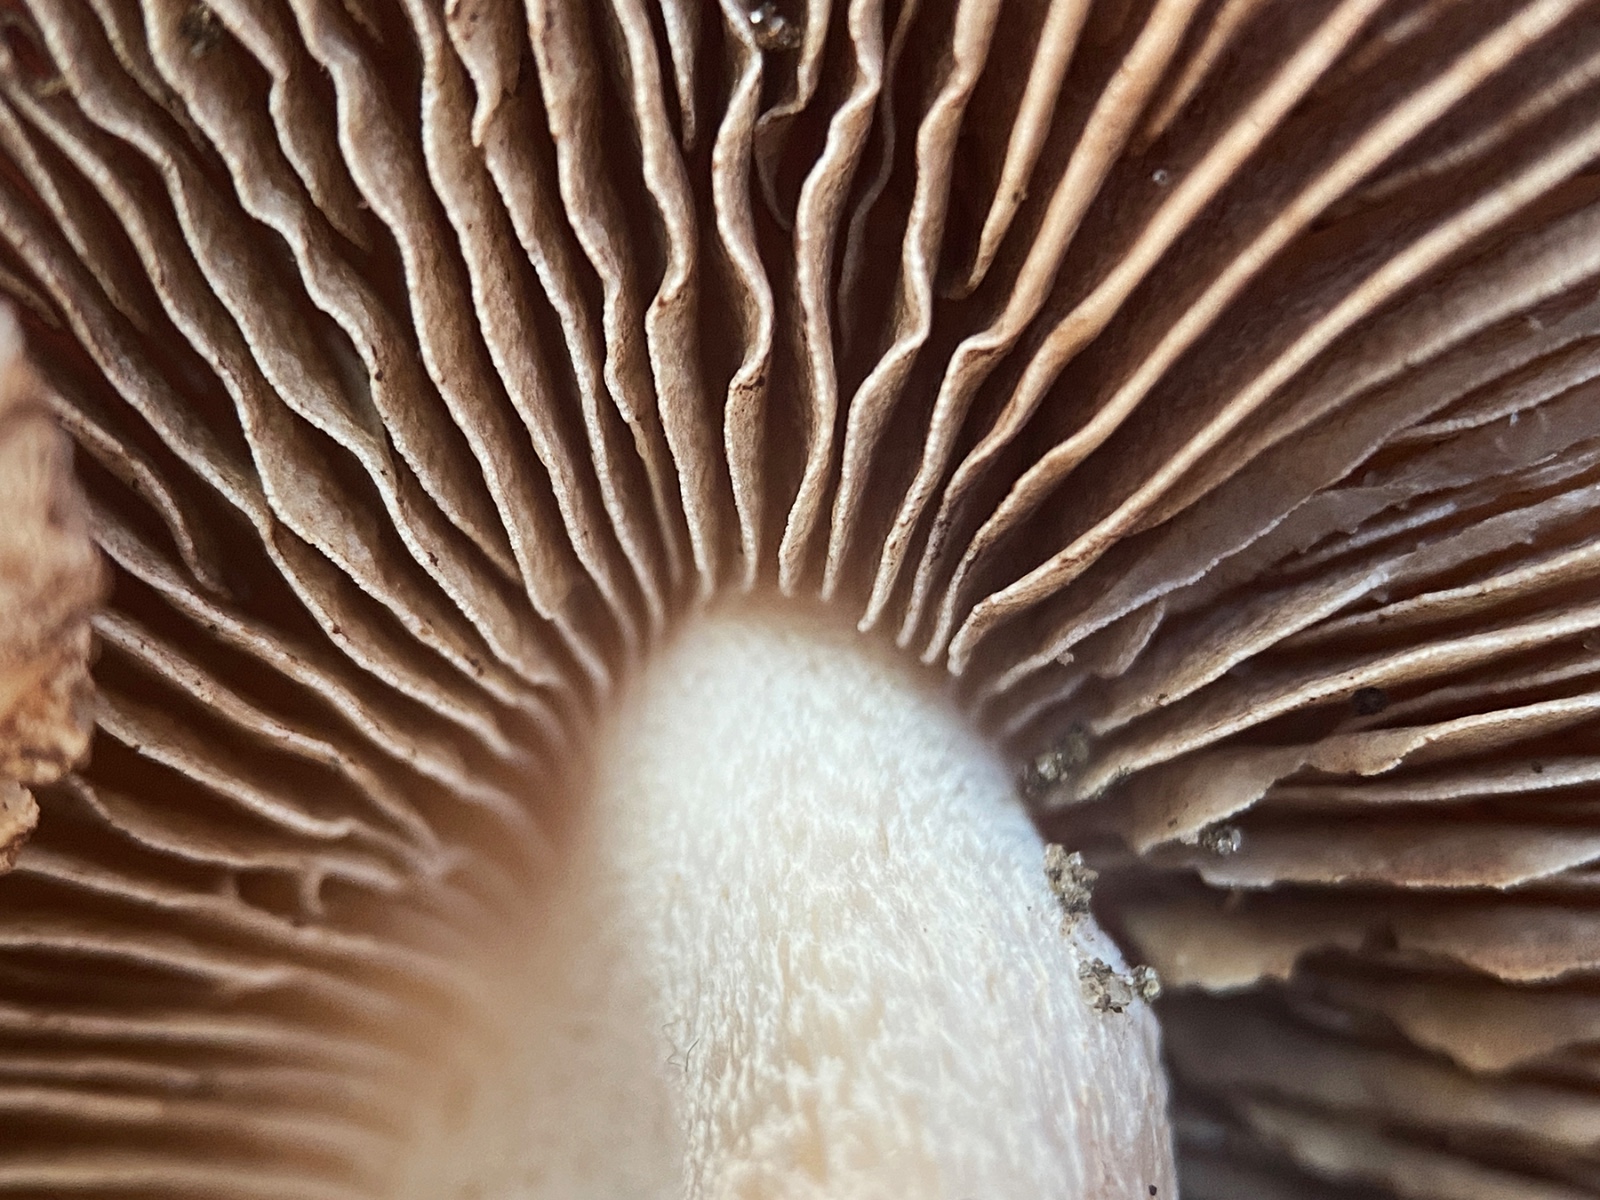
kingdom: Fungi
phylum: Basidiomycota
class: Agaricomycetes
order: Agaricales
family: Hymenogastraceae
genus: Hebeloma
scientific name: Hebeloma sinapizans
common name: ræddike-tåreblad
